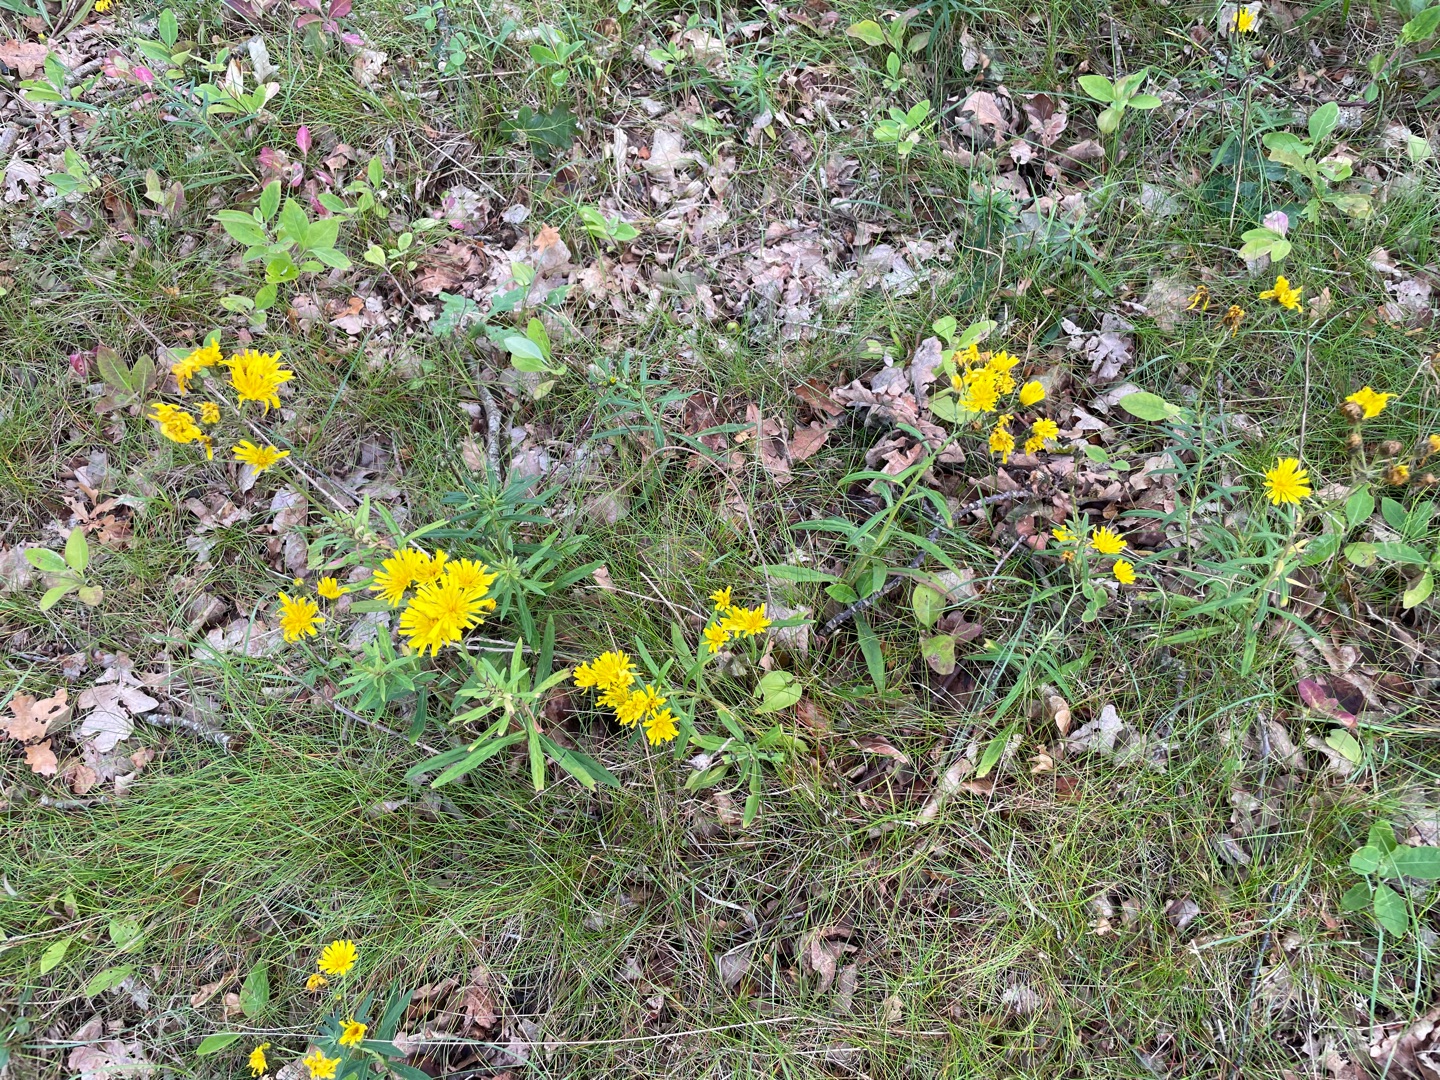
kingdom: Plantae
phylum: Tracheophyta
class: Magnoliopsida
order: Asterales
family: Asteraceae
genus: Hieracium
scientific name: Hieracium umbellatum
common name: Smalbladet høgeurt
